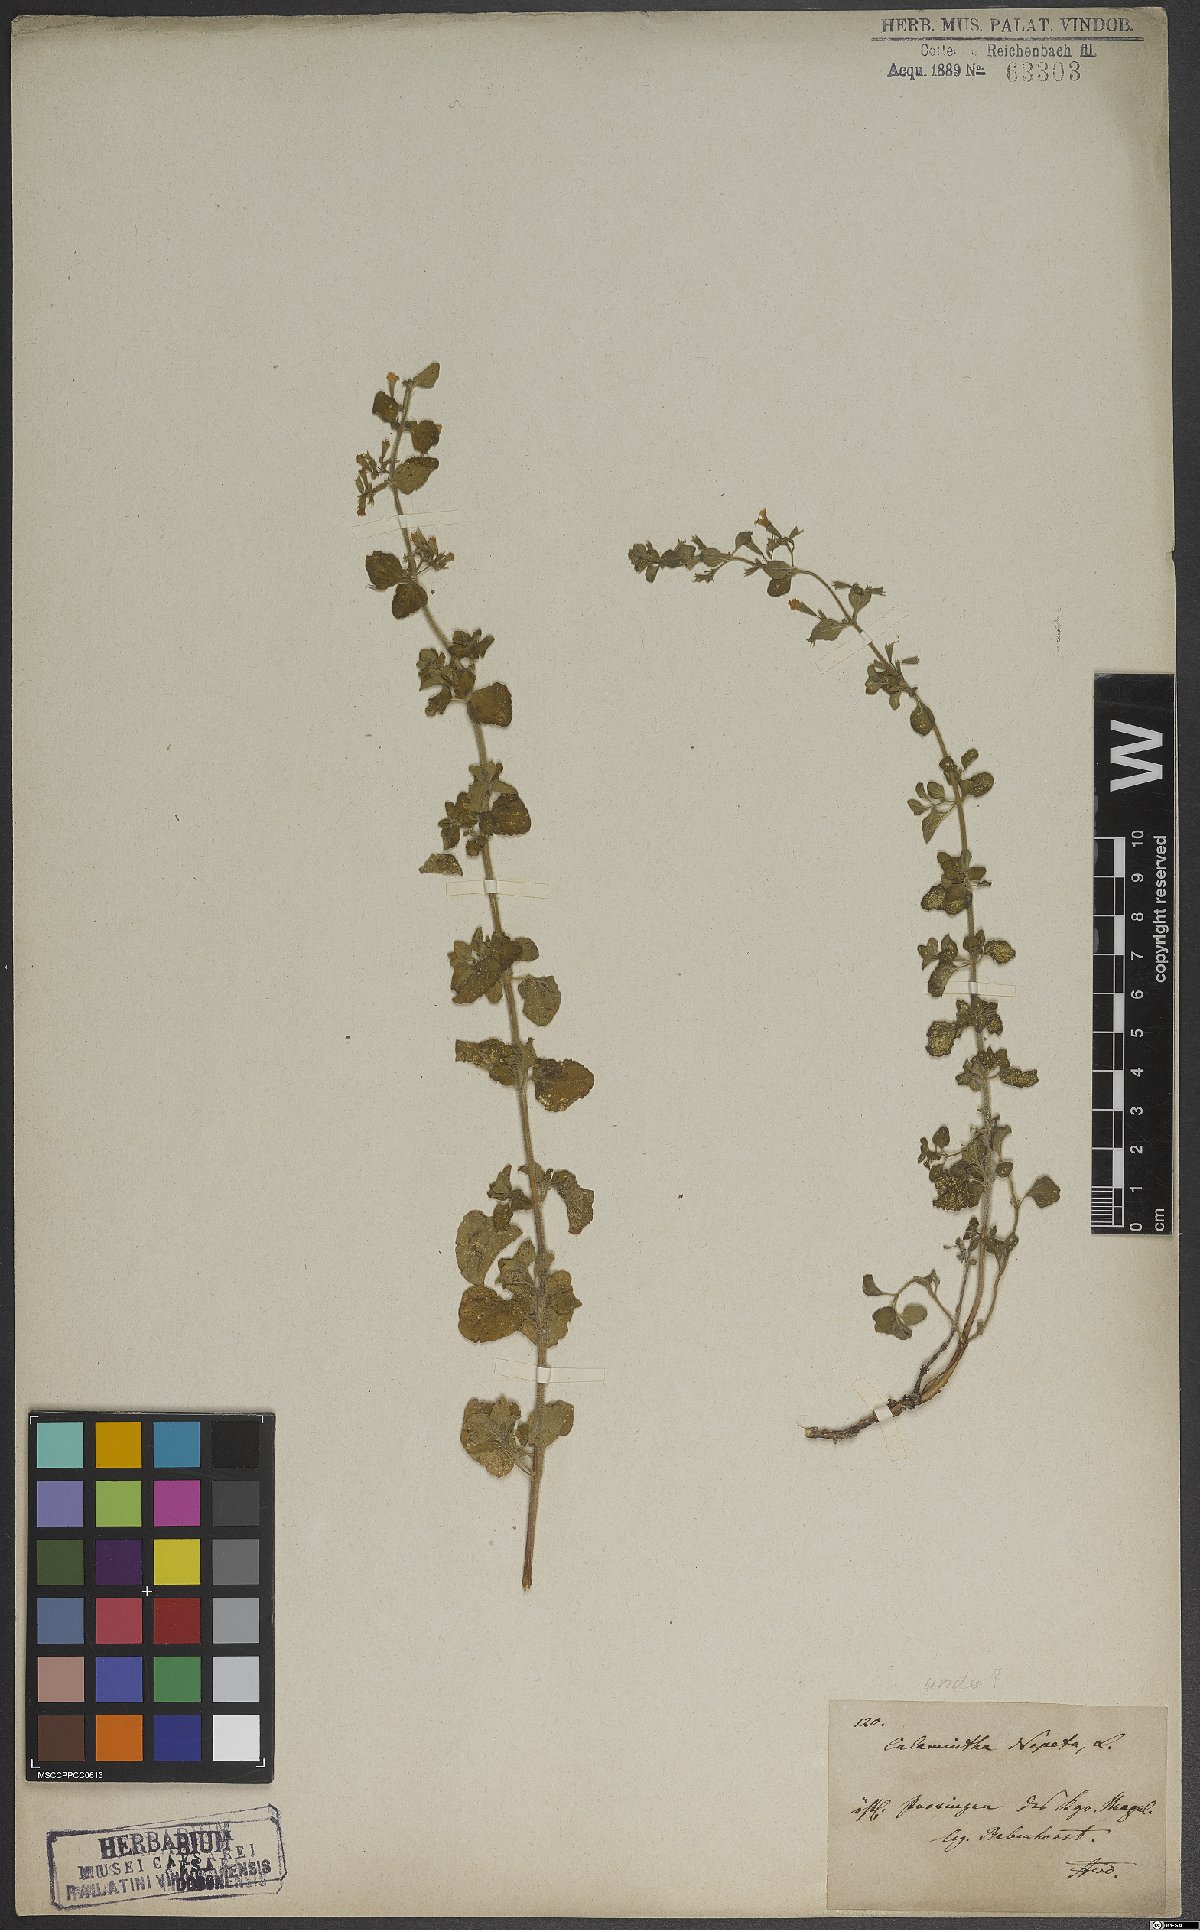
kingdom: Plantae
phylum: Tracheophyta
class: Magnoliopsida
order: Lamiales
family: Lamiaceae
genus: Clinopodium
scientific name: Clinopodium nepeta
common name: Lesser calamint
